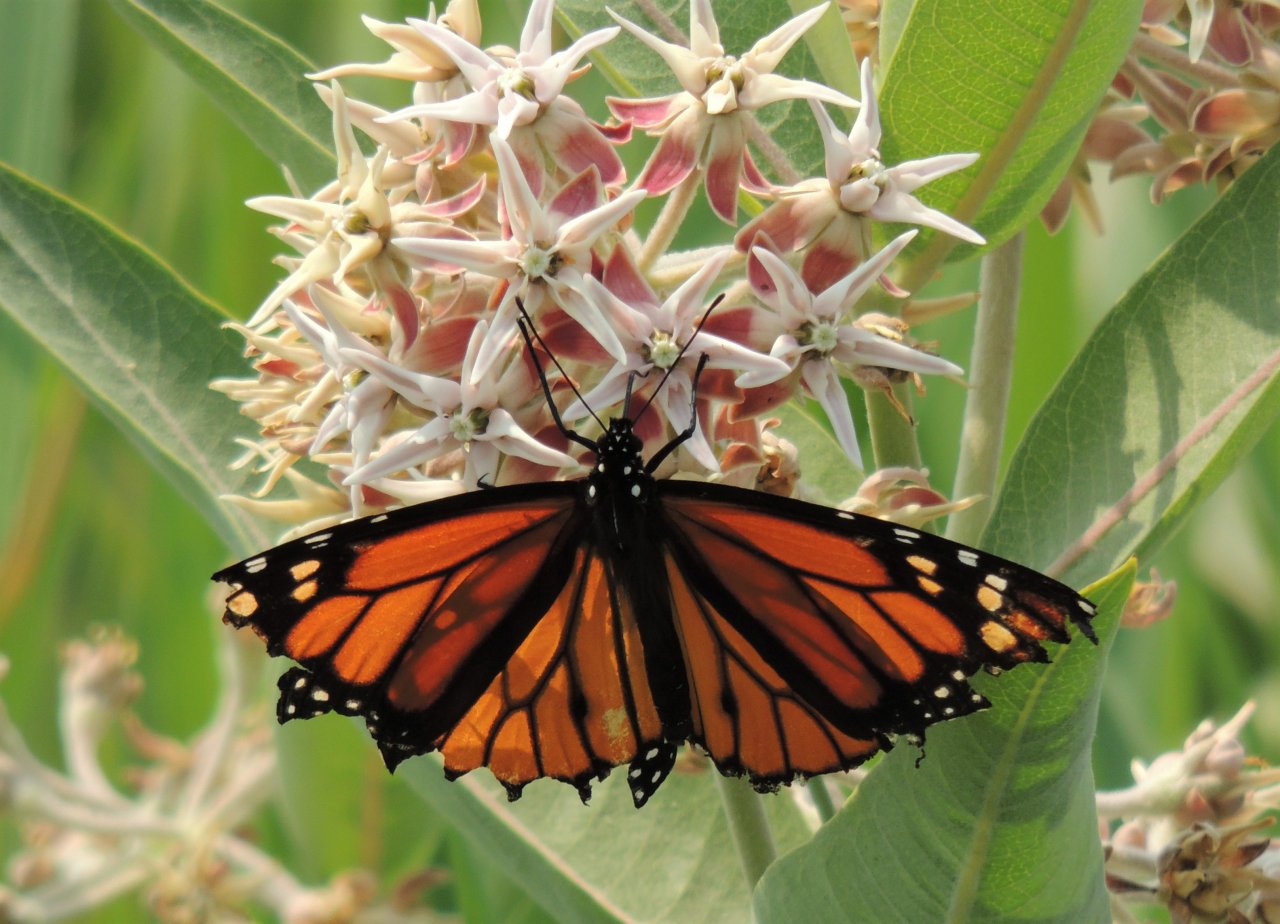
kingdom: Animalia
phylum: Arthropoda
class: Insecta
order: Lepidoptera
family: Nymphalidae
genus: Danaus
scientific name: Danaus plexippus
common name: Monarch
